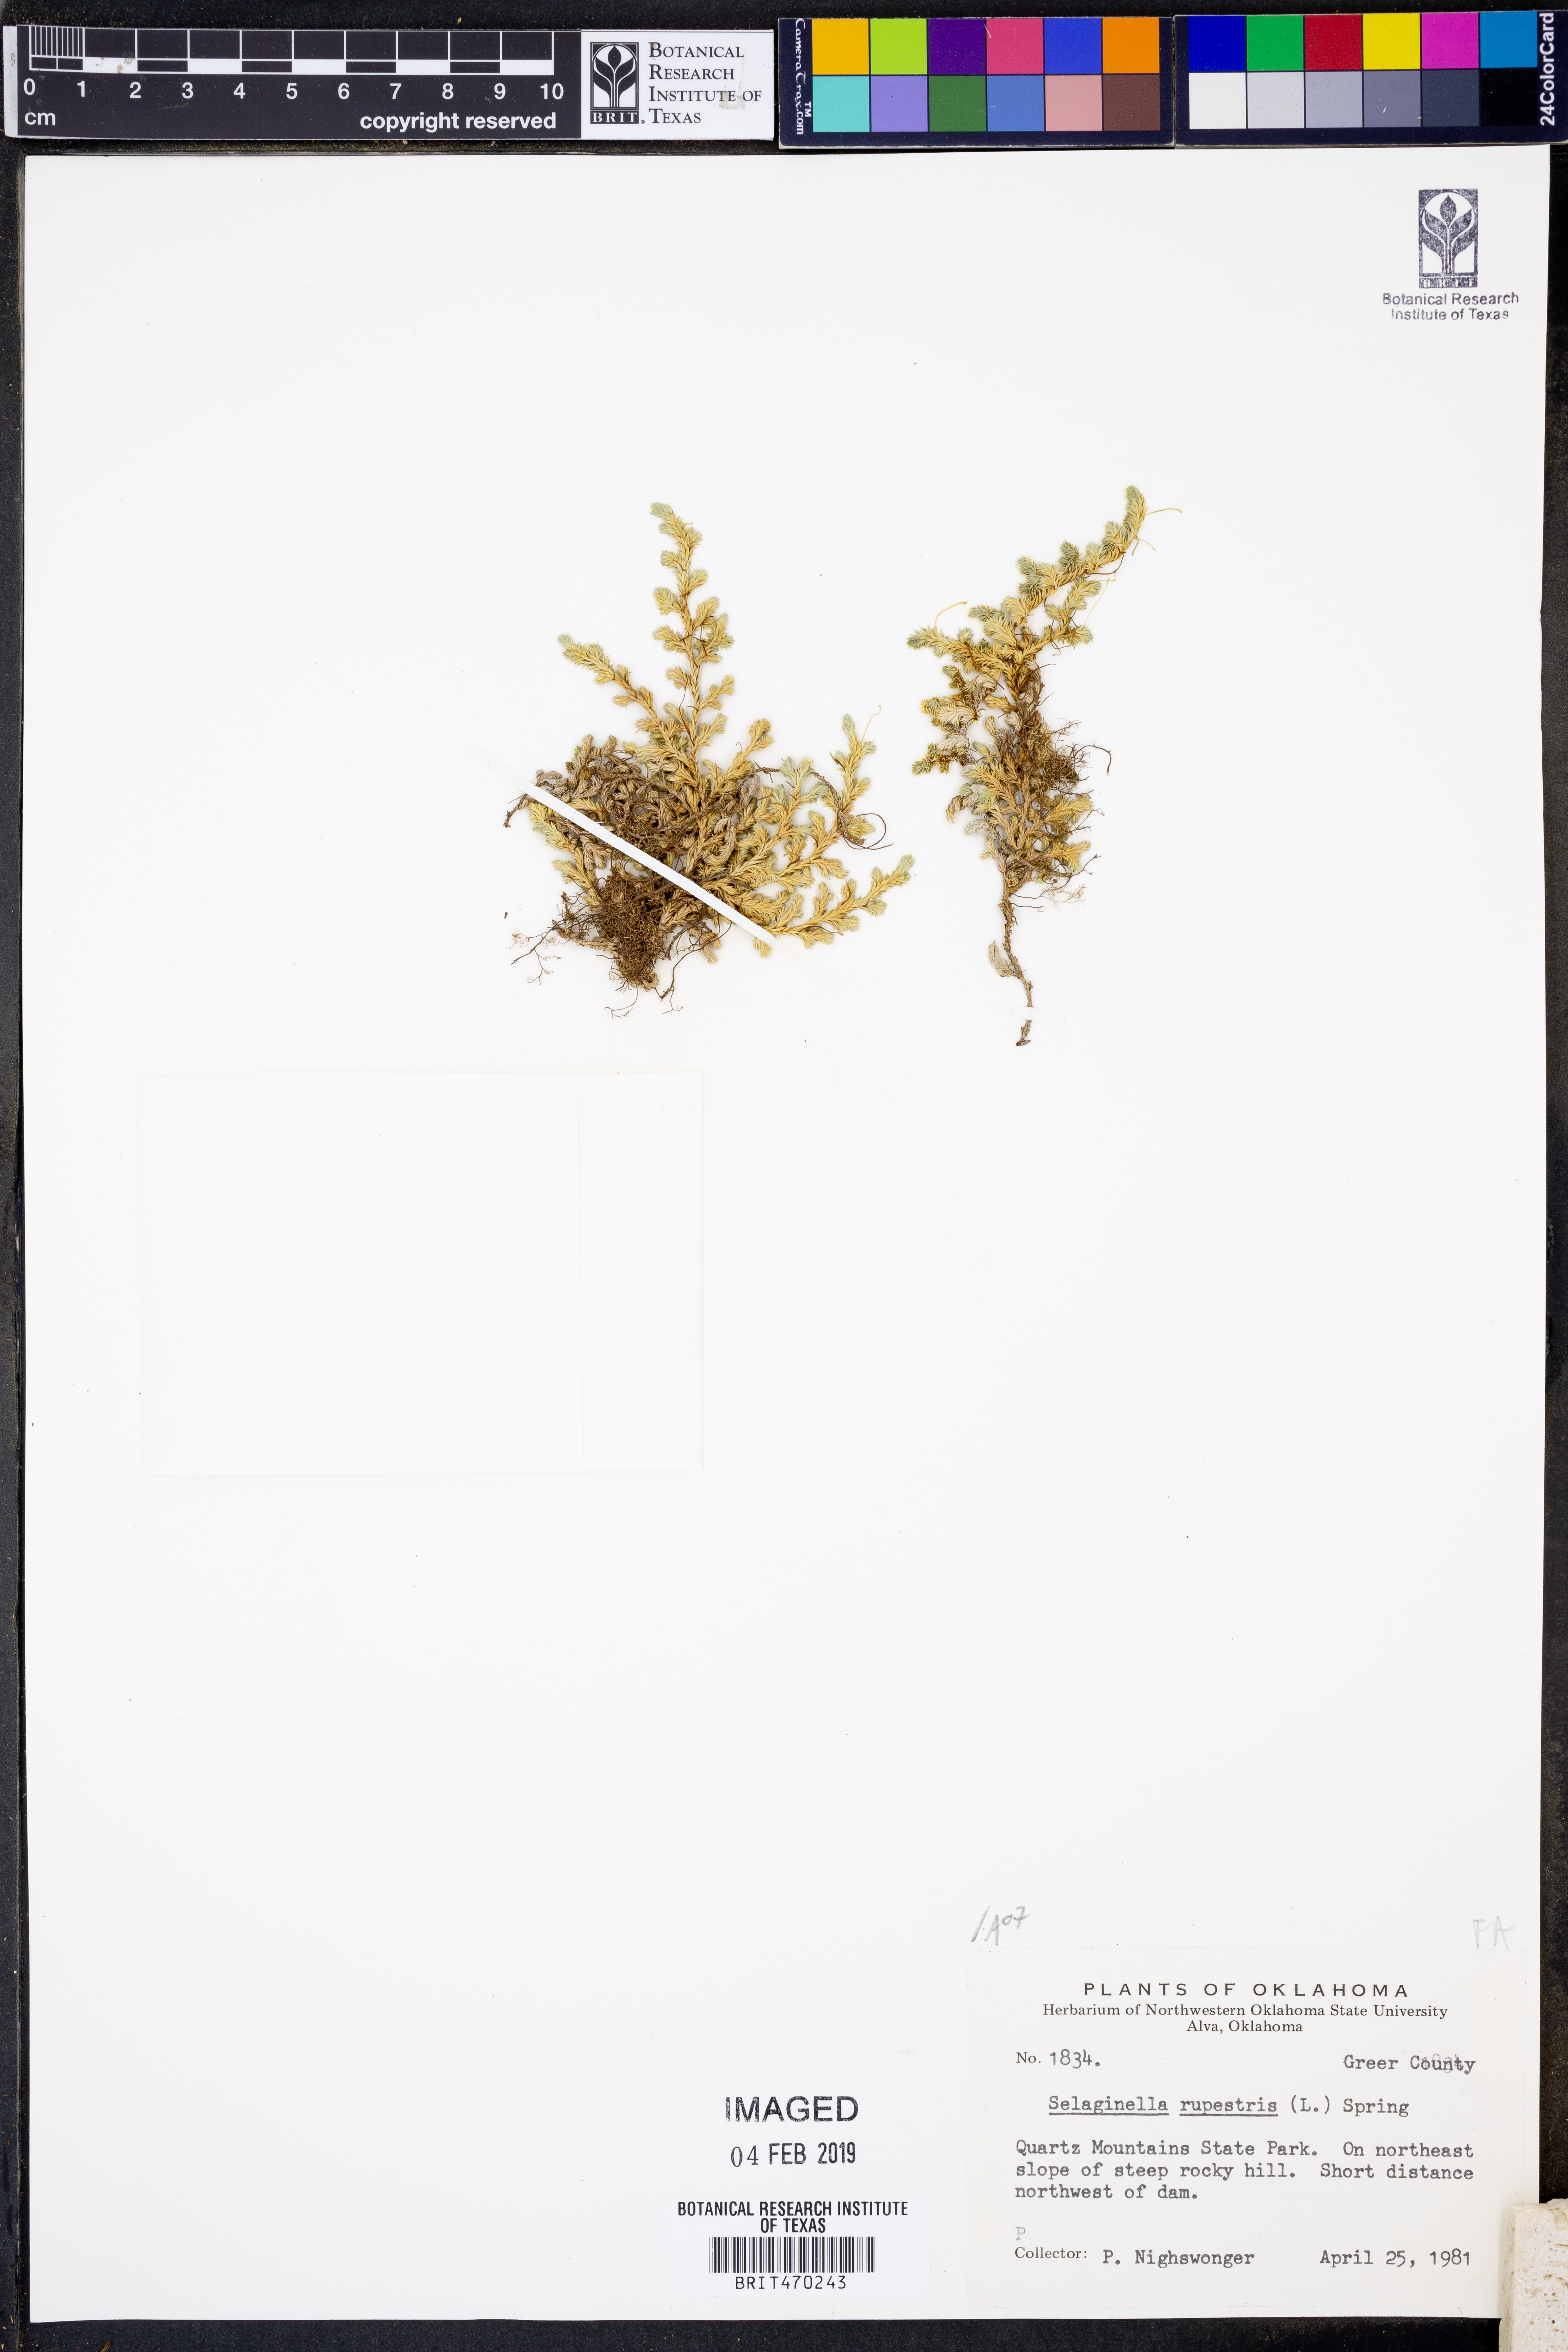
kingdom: Plantae
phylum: Tracheophyta
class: Lycopodiopsida
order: Selaginellales
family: Selaginellaceae
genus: Selaginella
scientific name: Selaginella rupestris
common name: Dwarf spikemoss
